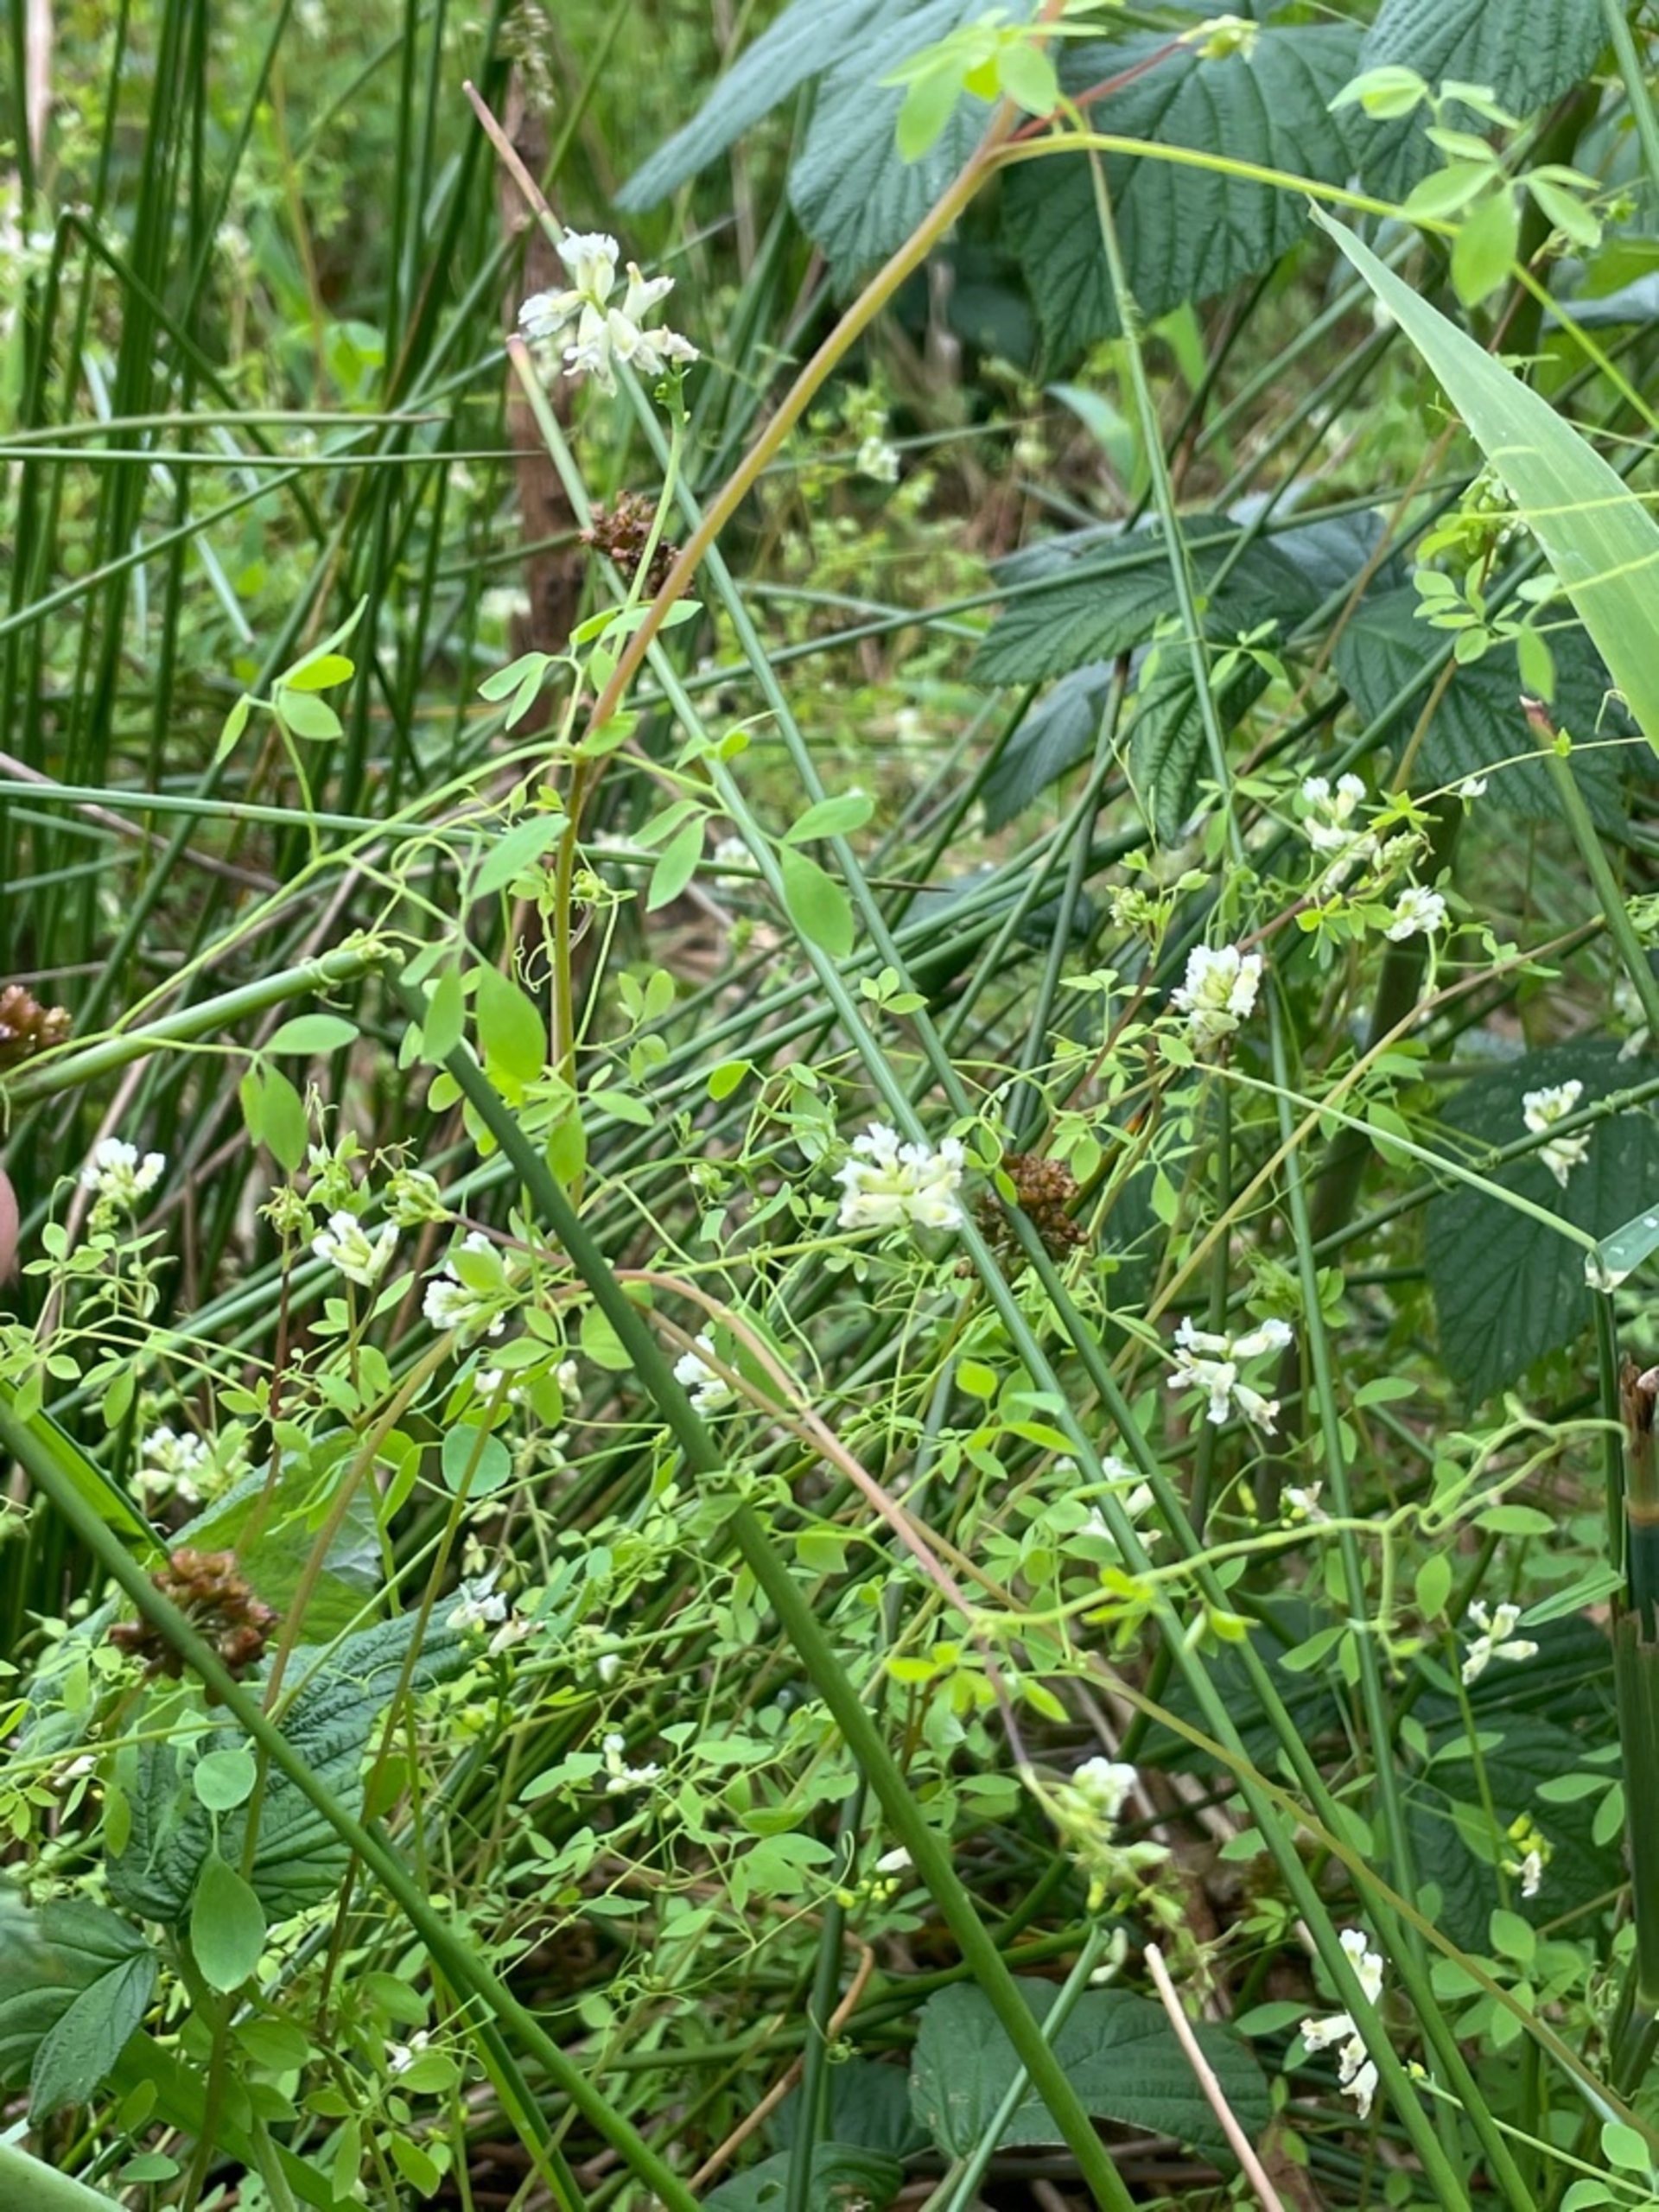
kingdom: Plantae
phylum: Tracheophyta
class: Magnoliopsida
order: Ranunculales
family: Papaveraceae
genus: Ceratocapnos
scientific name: Ceratocapnos claviculata
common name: Klatrende lærkespore
